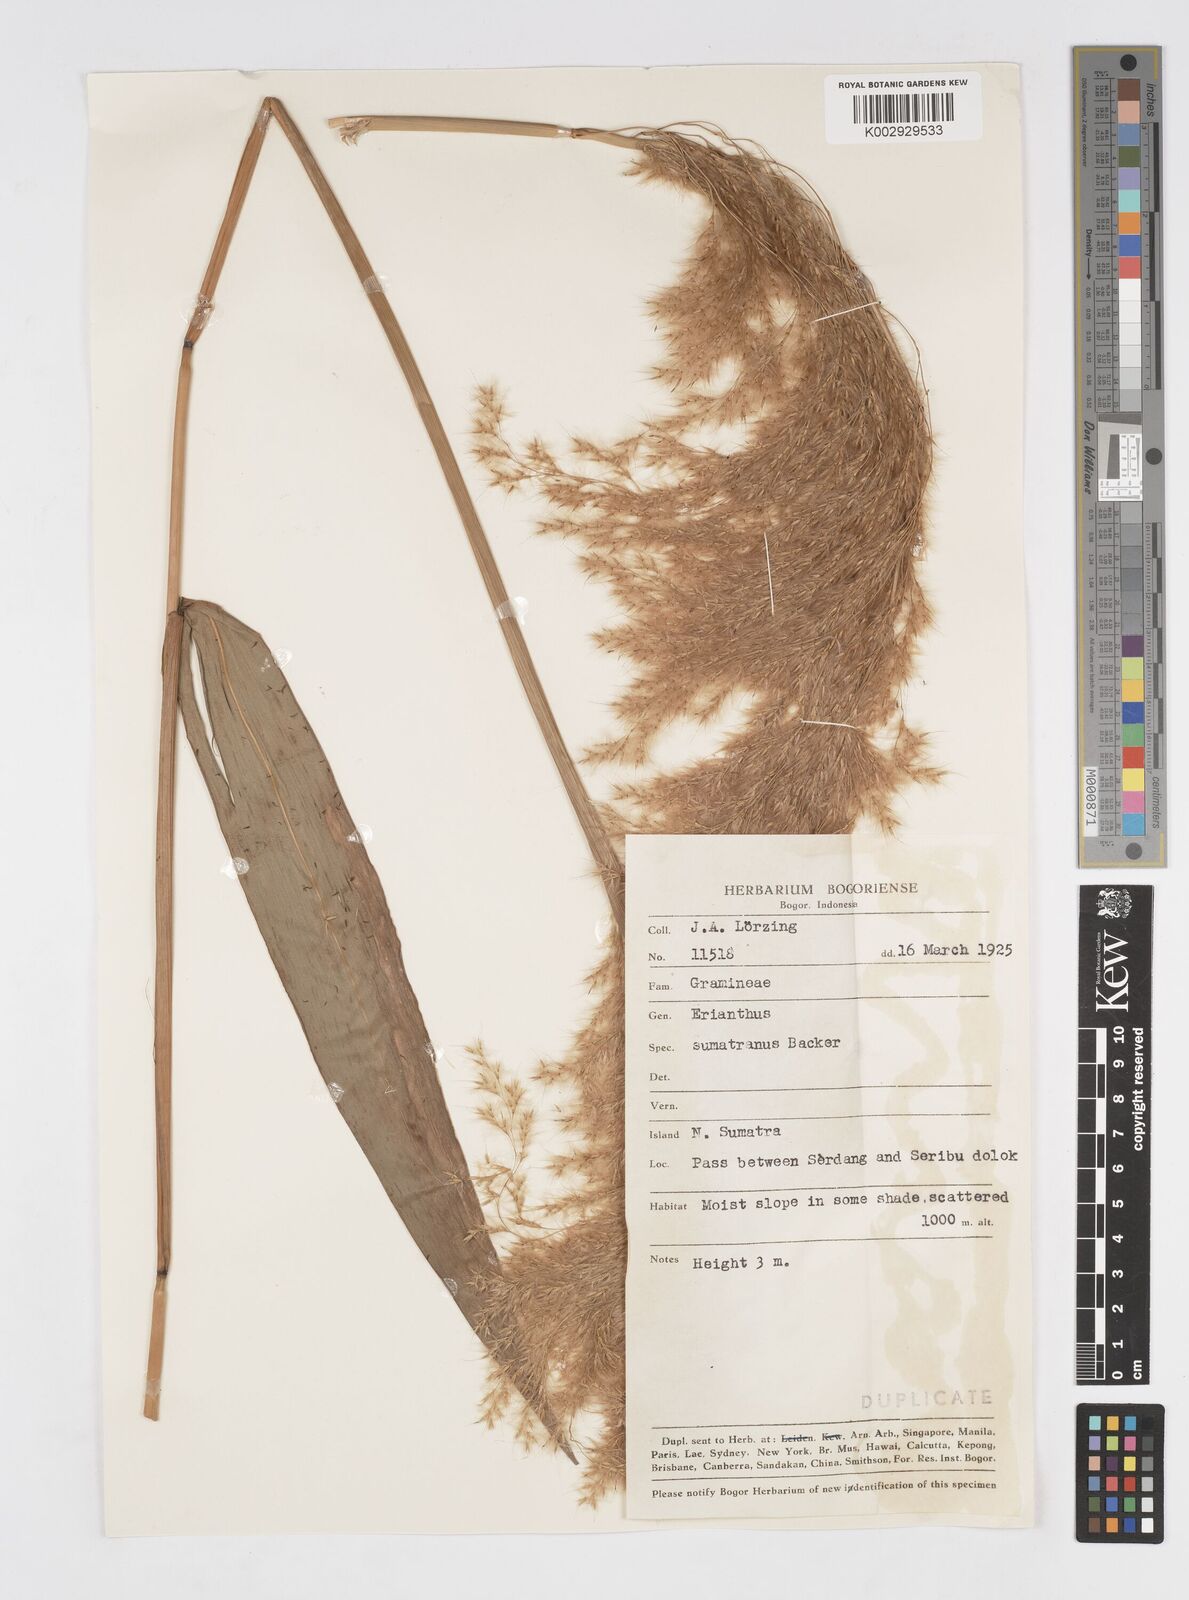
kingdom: Plantae
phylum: Tracheophyta
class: Liliopsida
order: Poales
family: Poaceae
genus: Saccharum
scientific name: Saccharum beccarii
